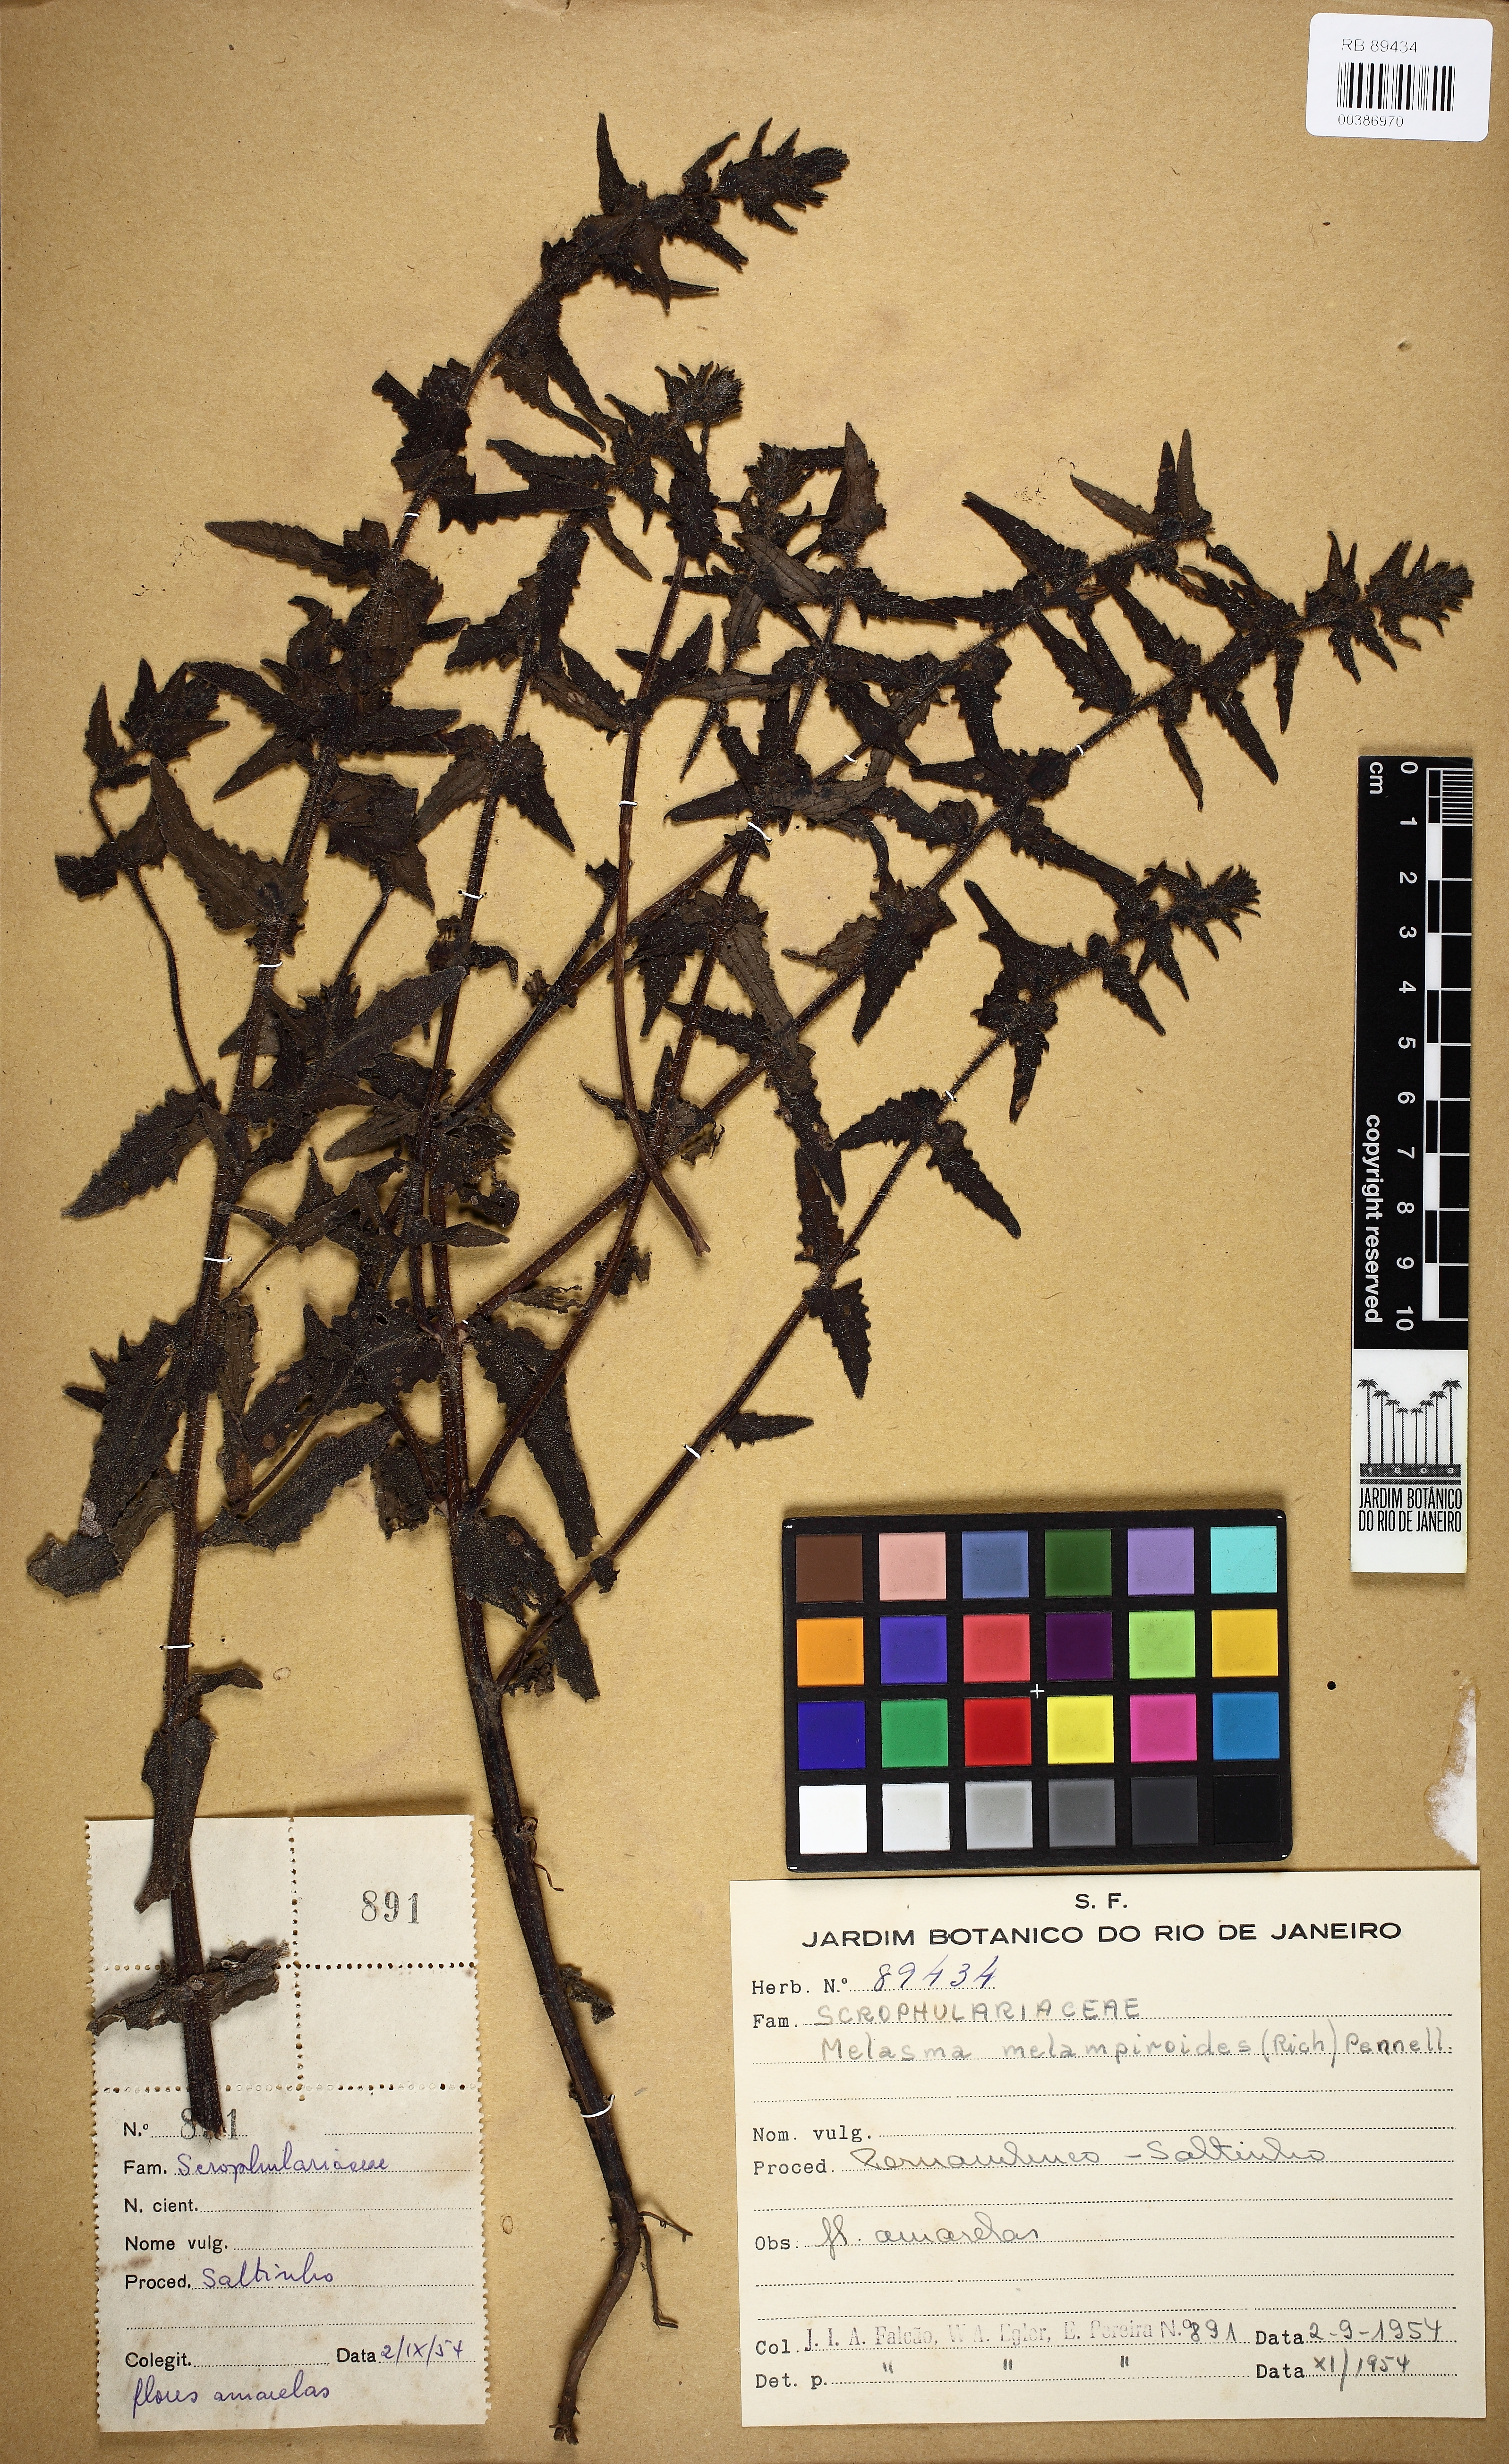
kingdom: Plantae
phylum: Tracheophyta
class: Magnoliopsida
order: Lamiales
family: Orobanchaceae
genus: Melasma
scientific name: Melasma melampyroides
